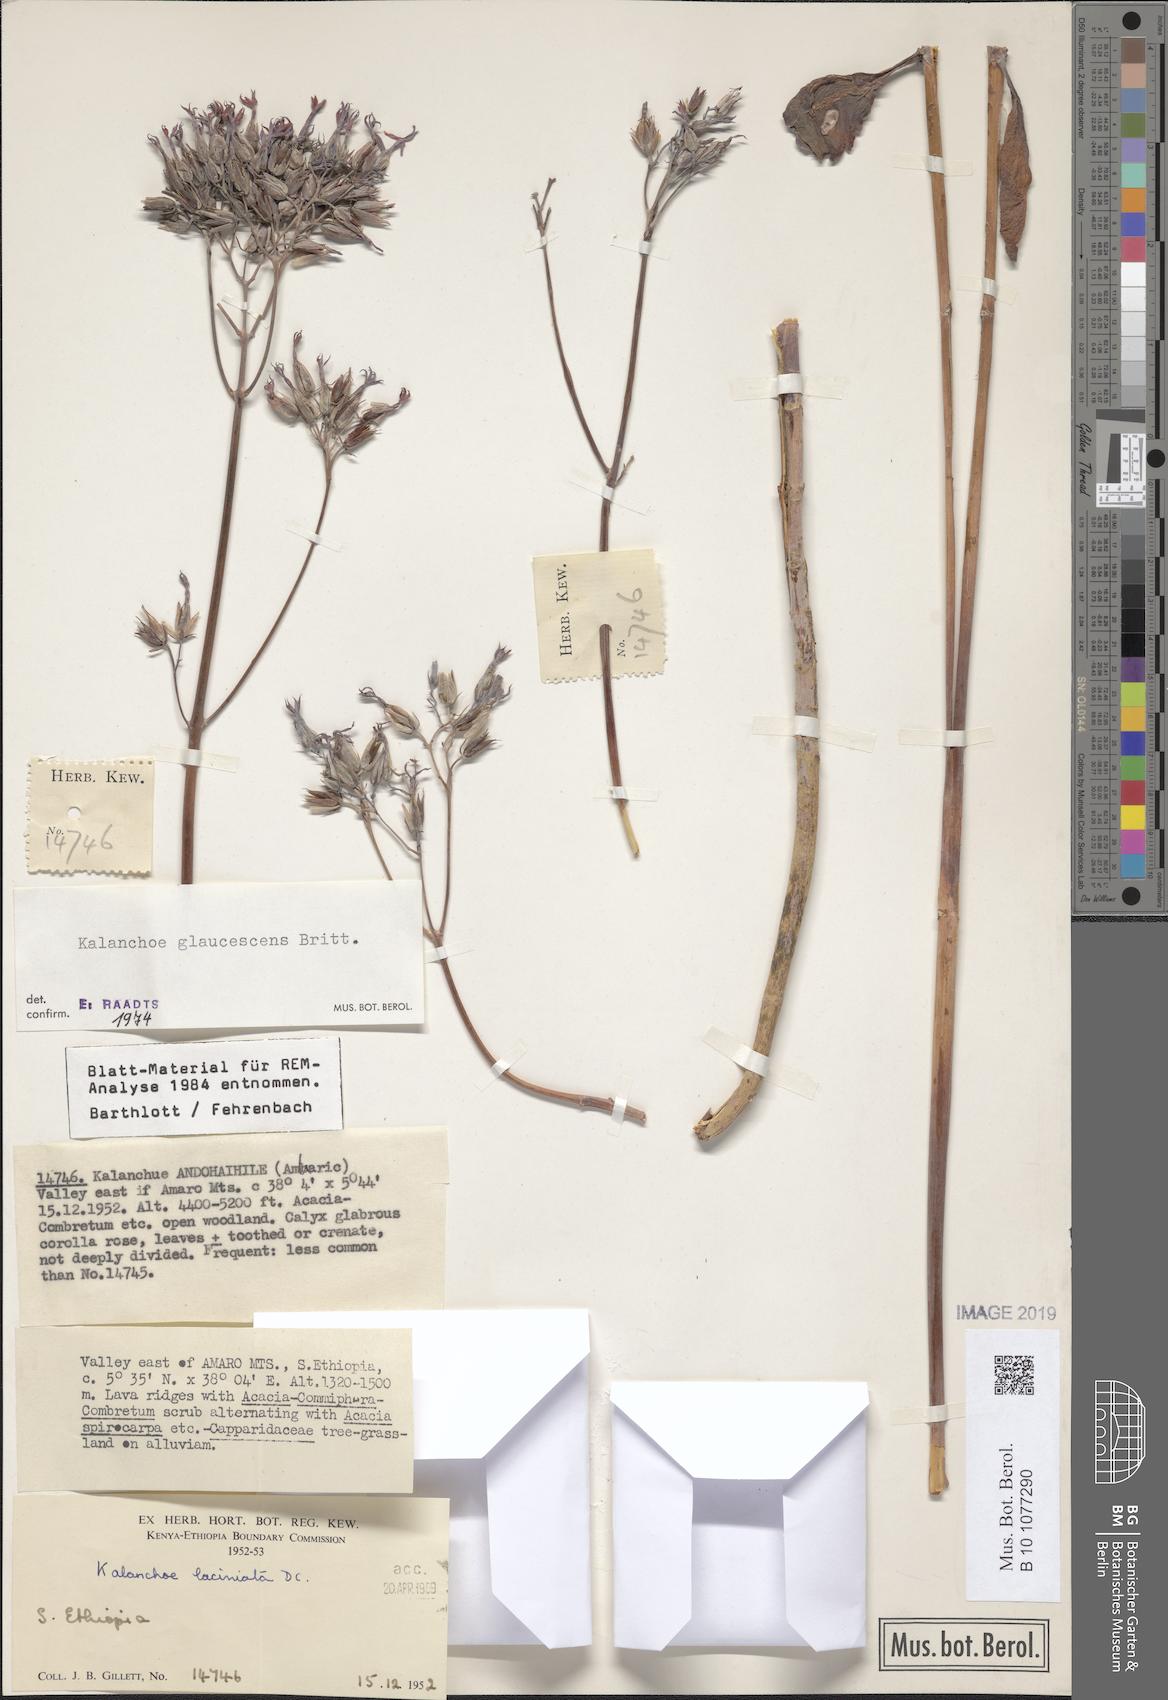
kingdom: Plantae
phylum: Tracheophyta
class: Magnoliopsida
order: Saxifragales
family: Crassulaceae
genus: Kalanchoe
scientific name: Kalanchoe glaucescens
